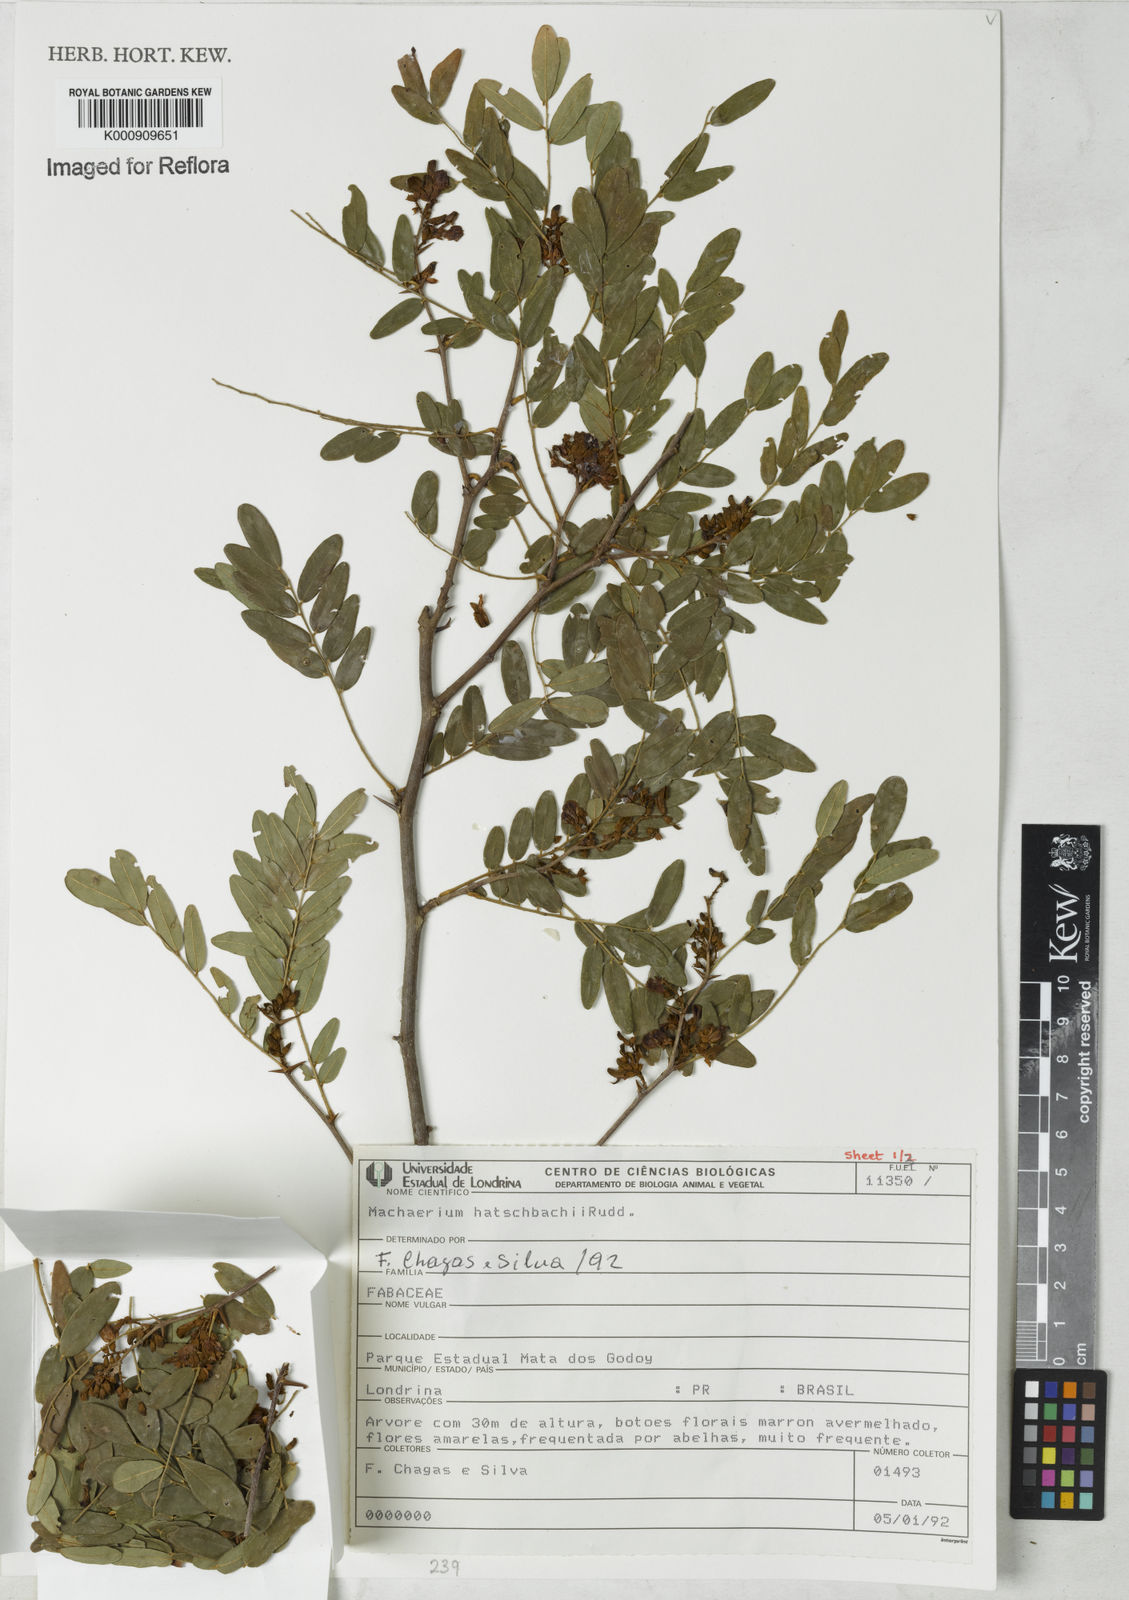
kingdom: Plantae
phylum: Tracheophyta
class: Magnoliopsida
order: Fabales
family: Fabaceae
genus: Machaerium
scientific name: Machaerium hatschbachii
